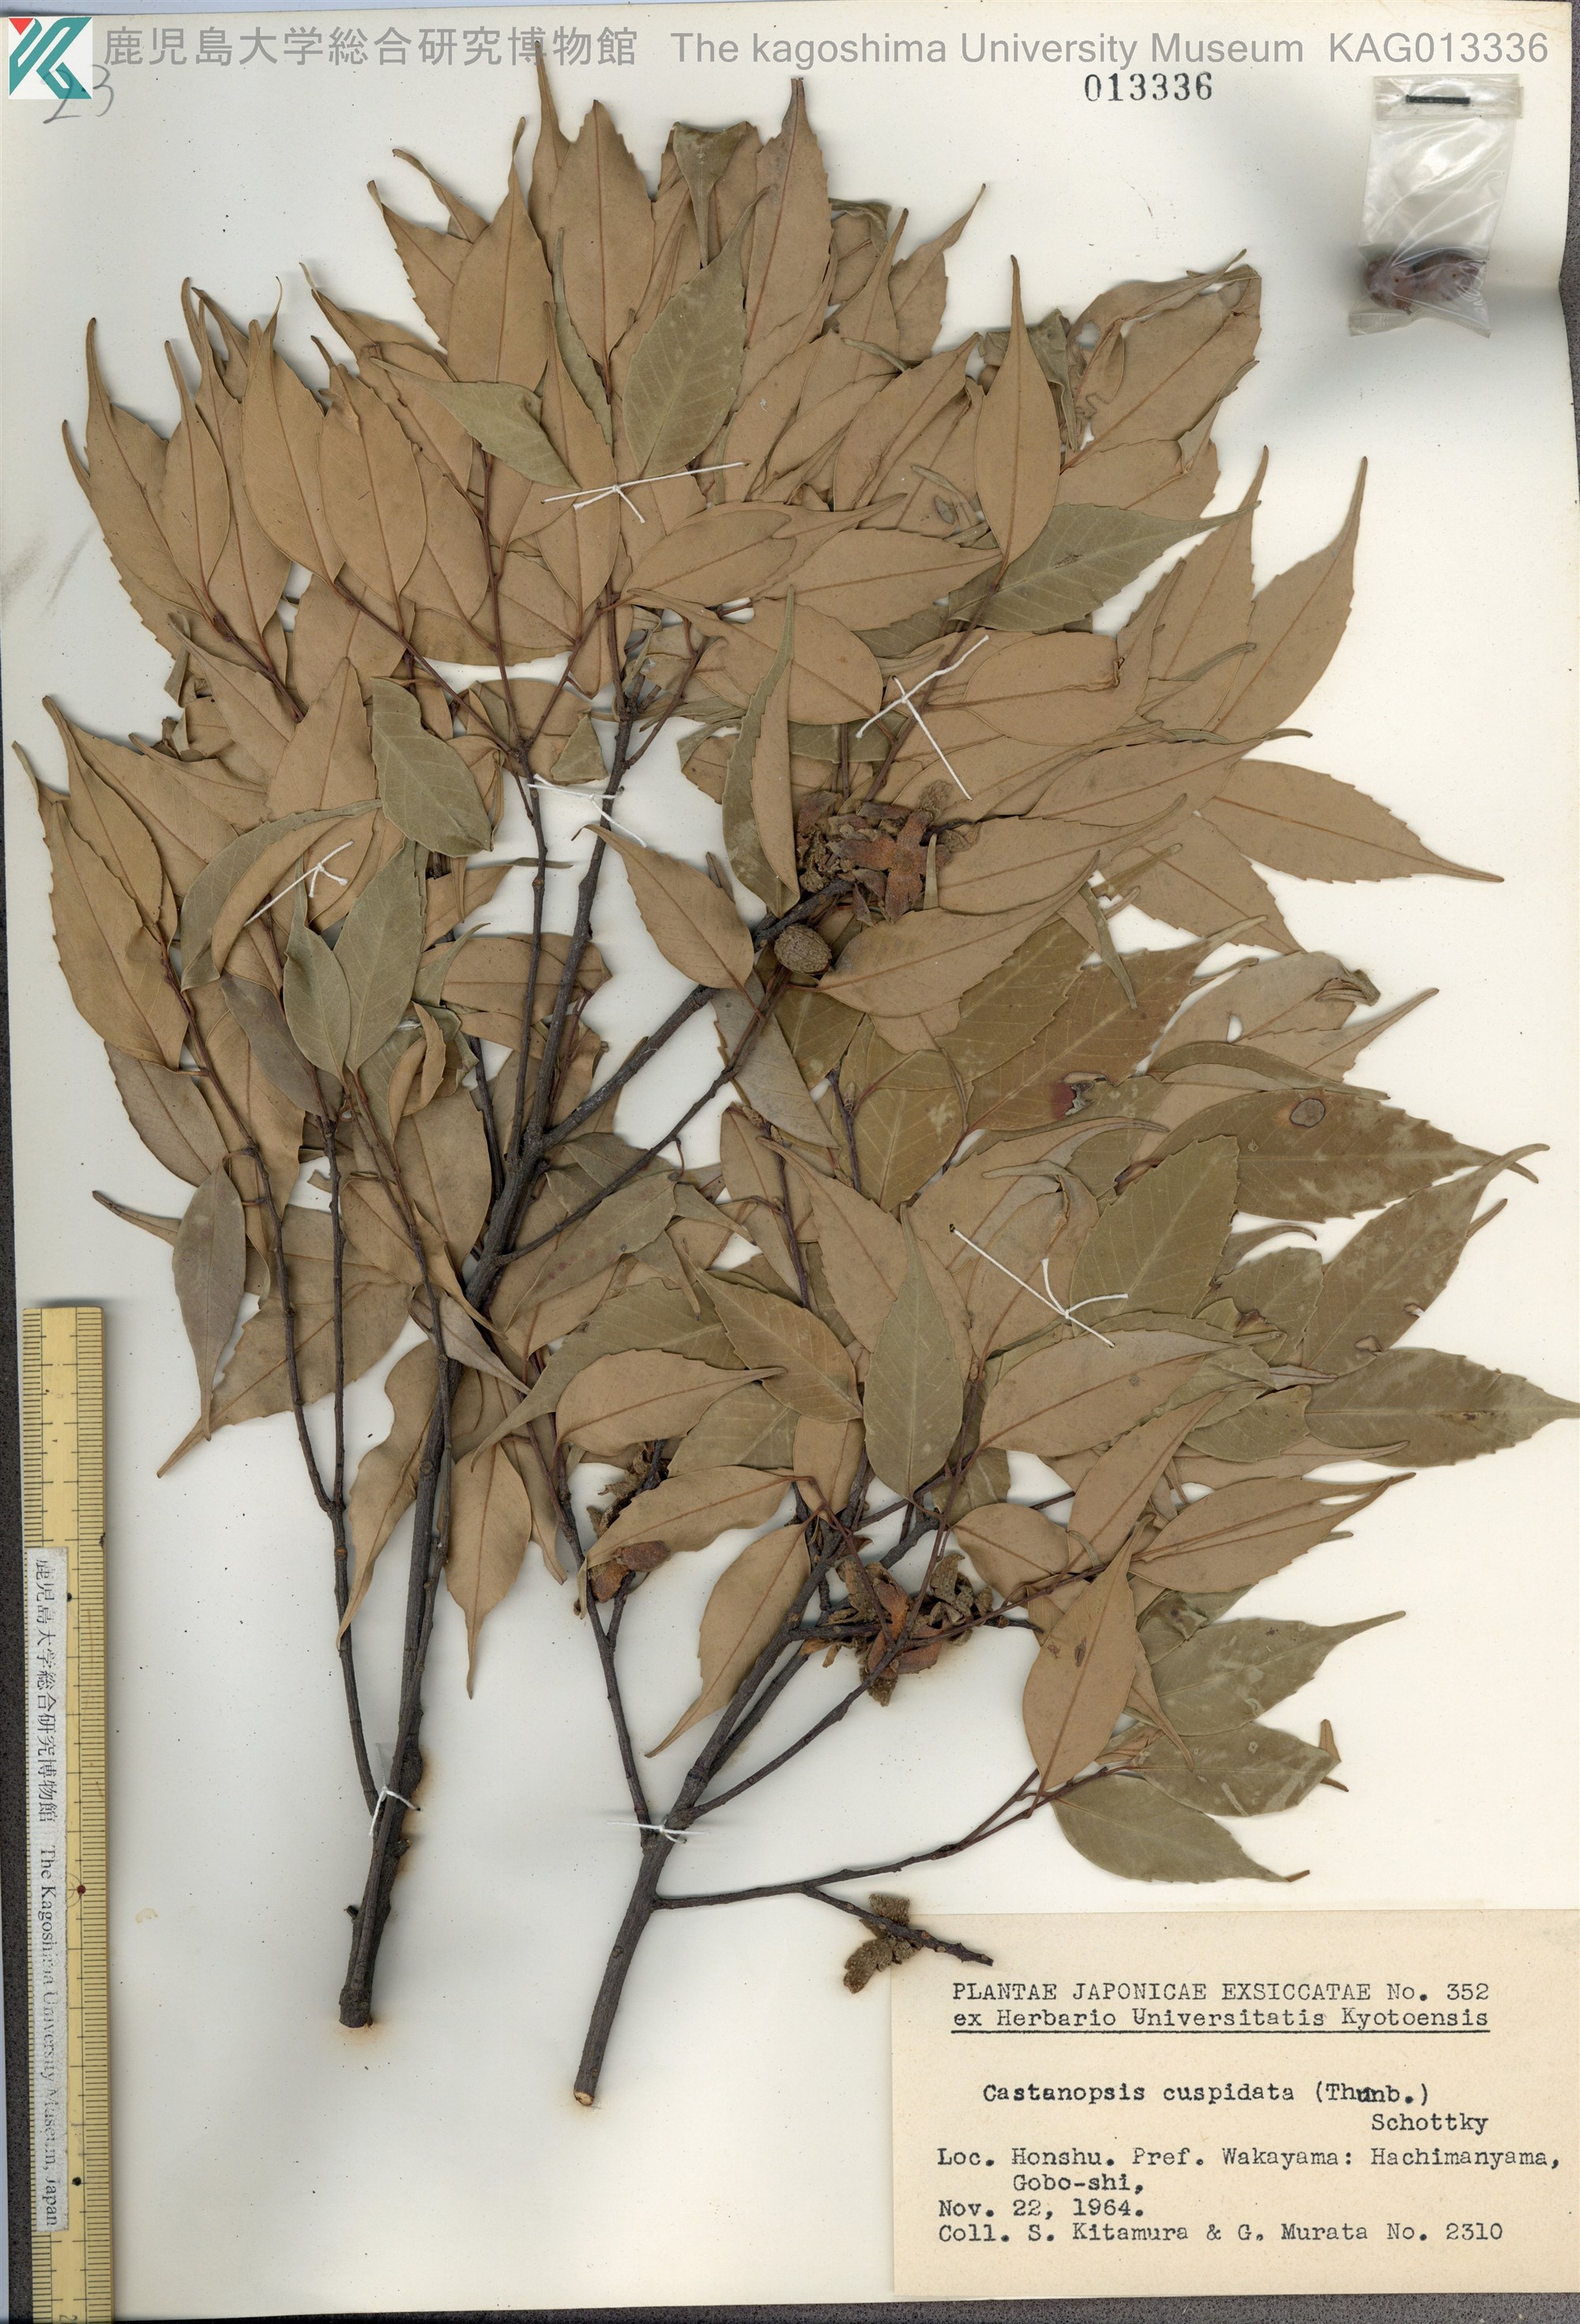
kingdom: Plantae
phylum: Tracheophyta
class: Magnoliopsida
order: Fagales
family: Fagaceae
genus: Castanopsis
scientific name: Castanopsis cuspidata
